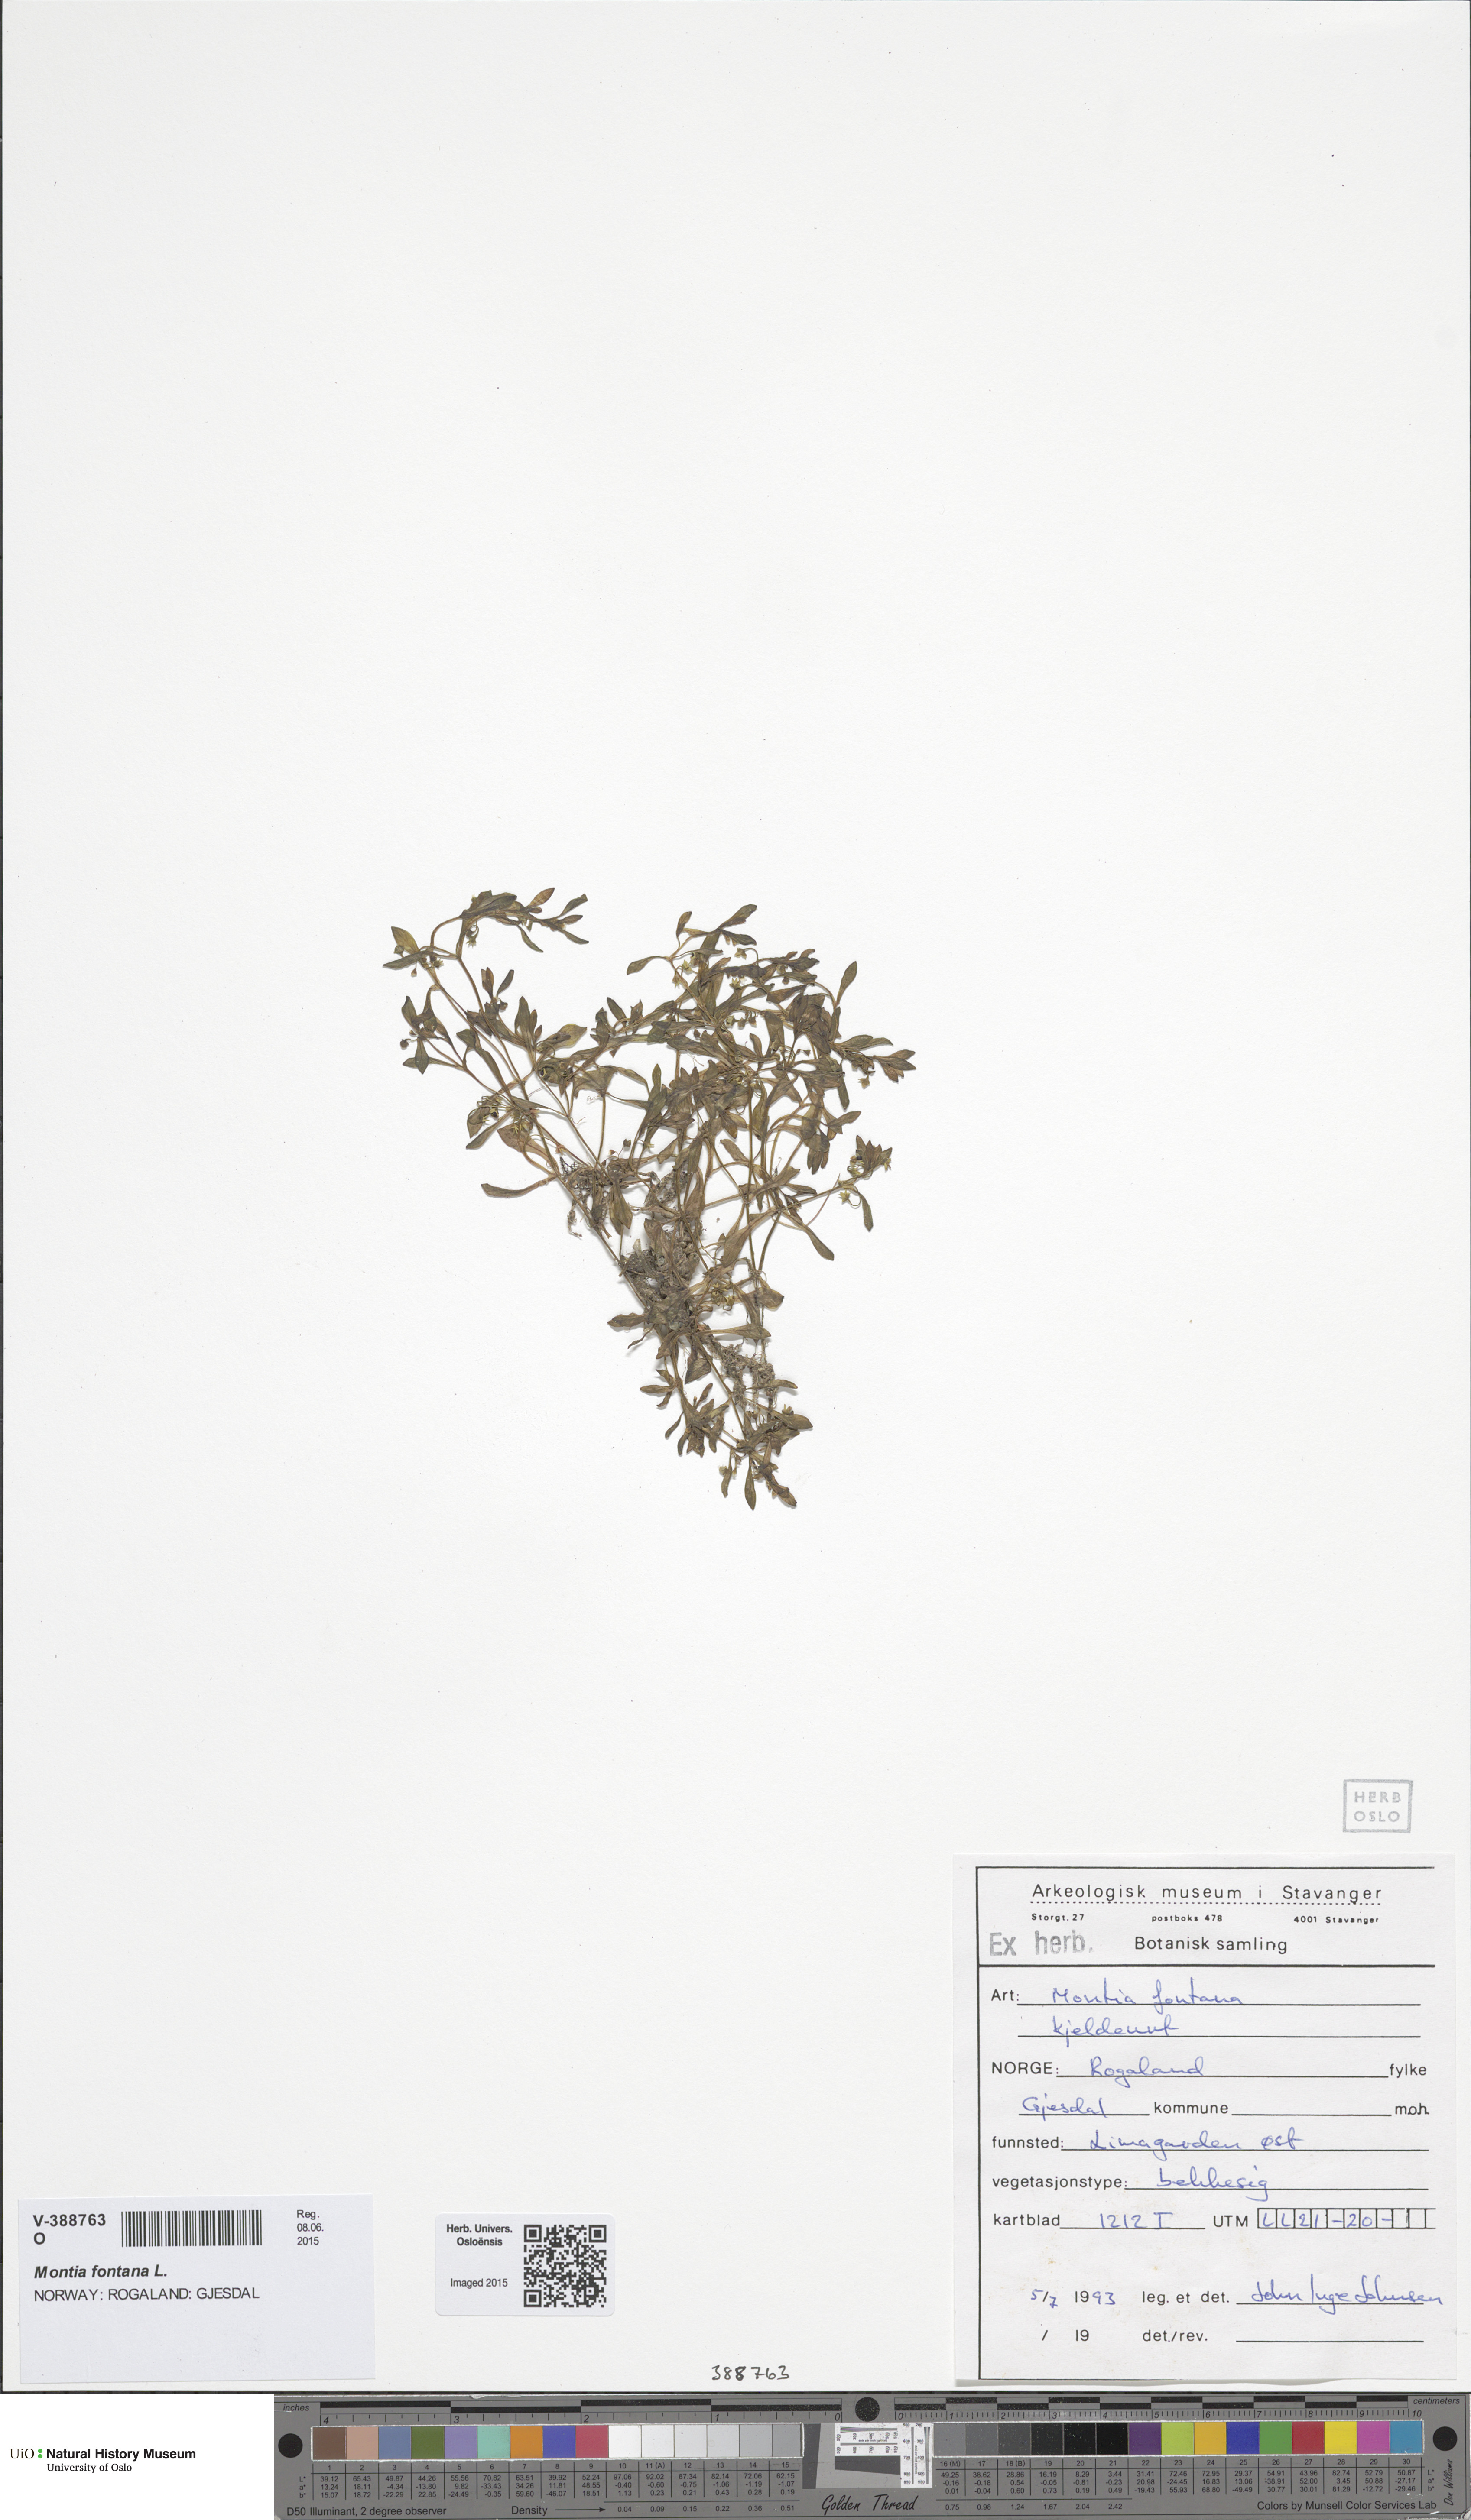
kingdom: Plantae
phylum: Tracheophyta
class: Magnoliopsida
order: Caryophyllales
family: Montiaceae
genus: Montia
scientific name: Montia fontana
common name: Blinks
